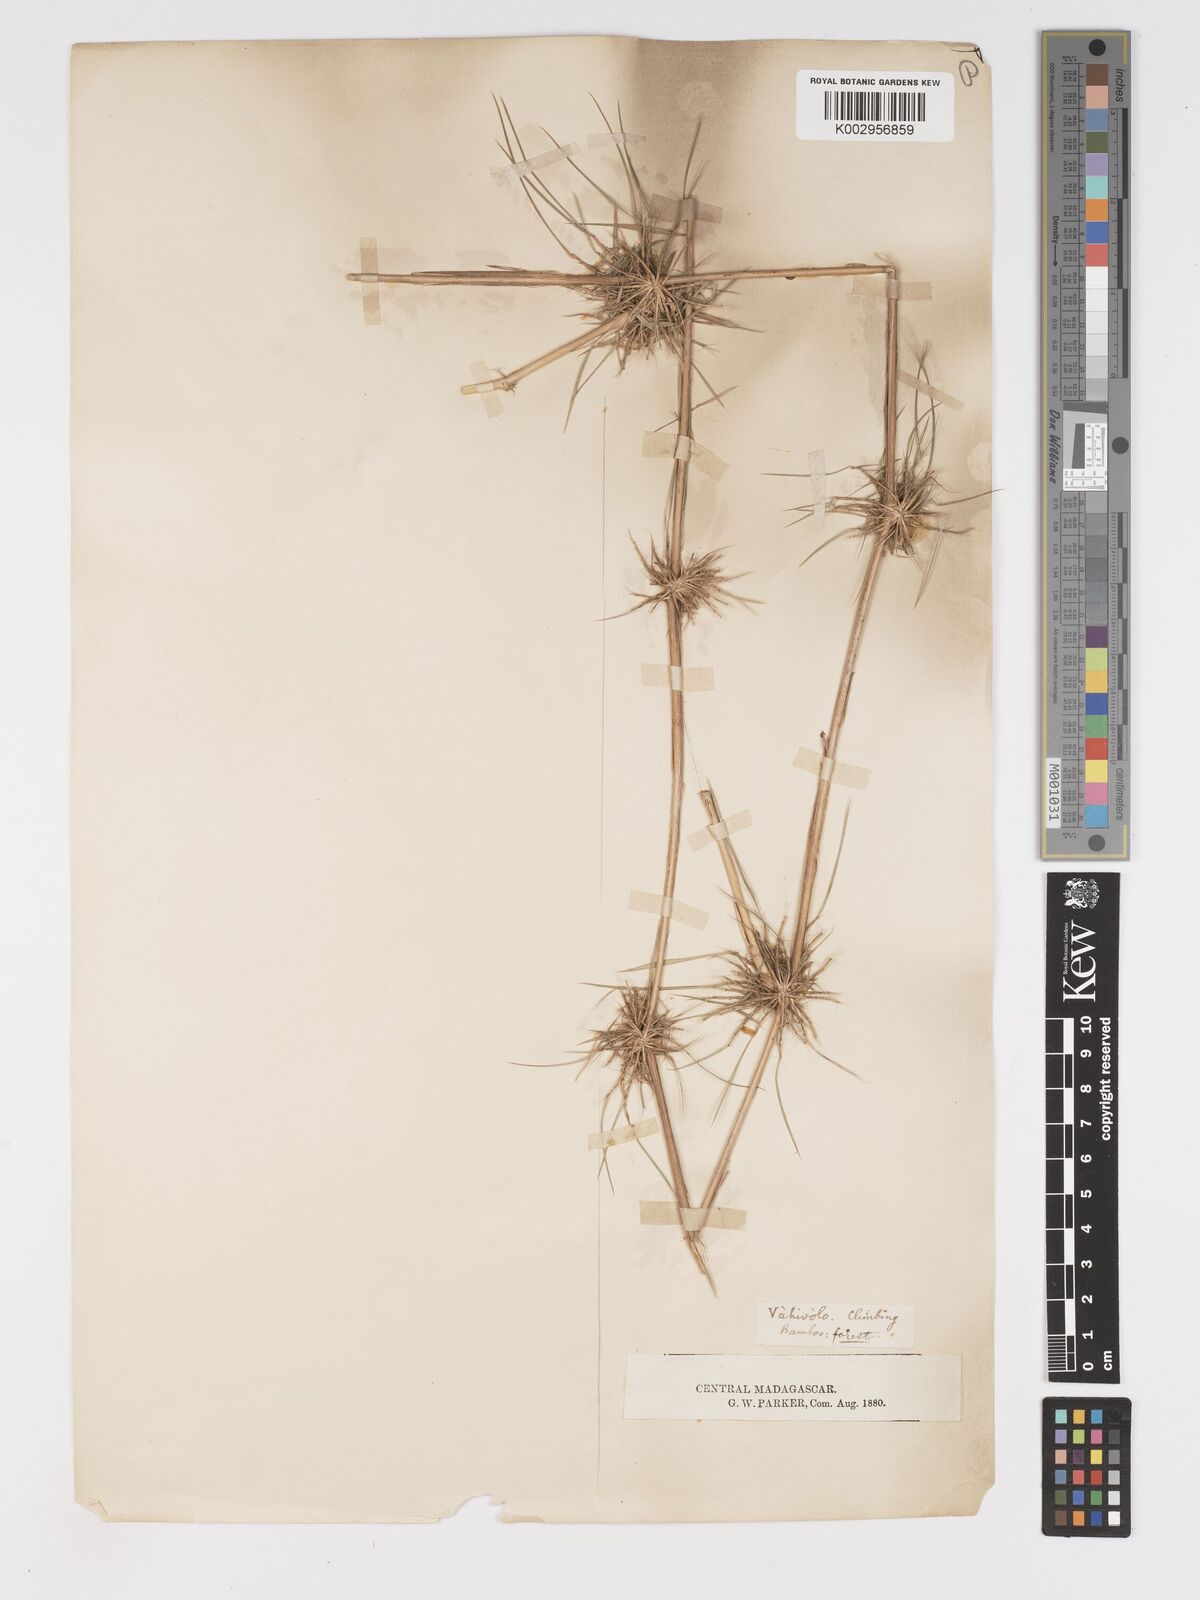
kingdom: Plantae
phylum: Tracheophyta
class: Liliopsida
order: Poales
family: Poaceae
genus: Nastus
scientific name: Nastus emirnensis
